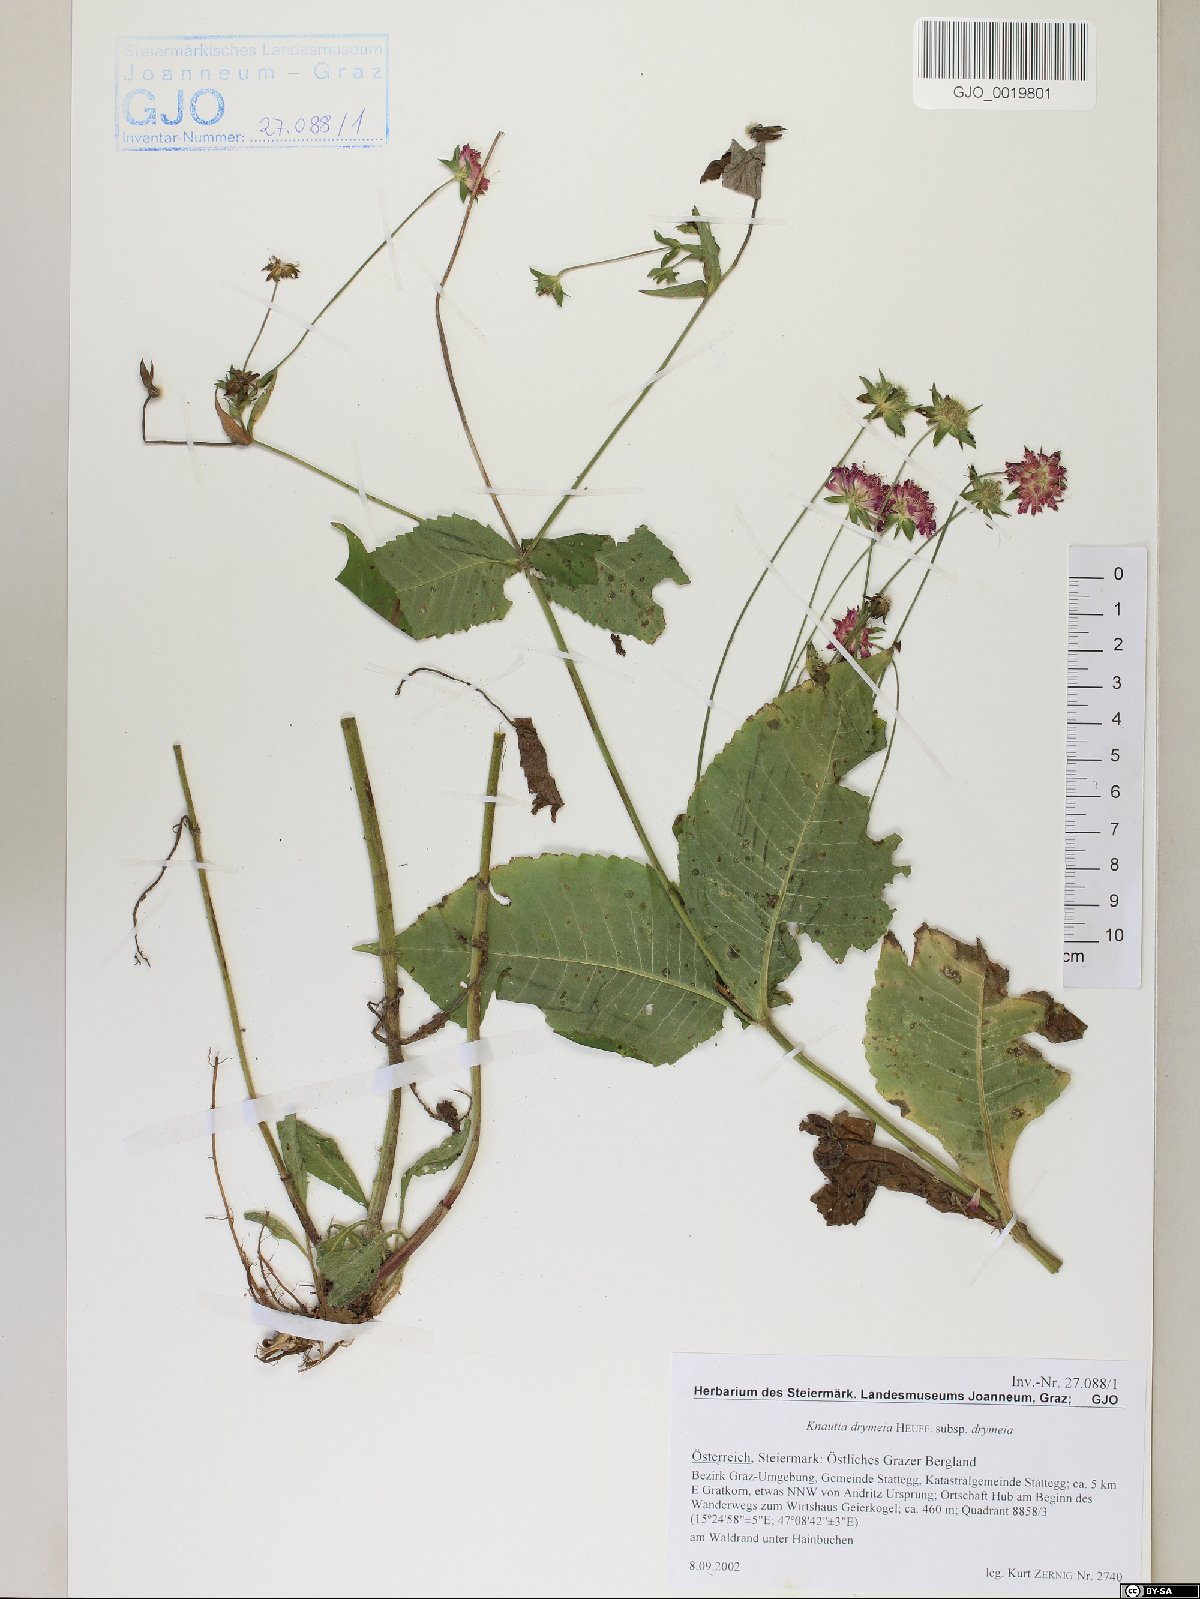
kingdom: Plantae
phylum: Tracheophyta
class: Magnoliopsida
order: Dipsacales
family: Caprifoliaceae
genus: Knautia
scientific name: Knautia drymeia
